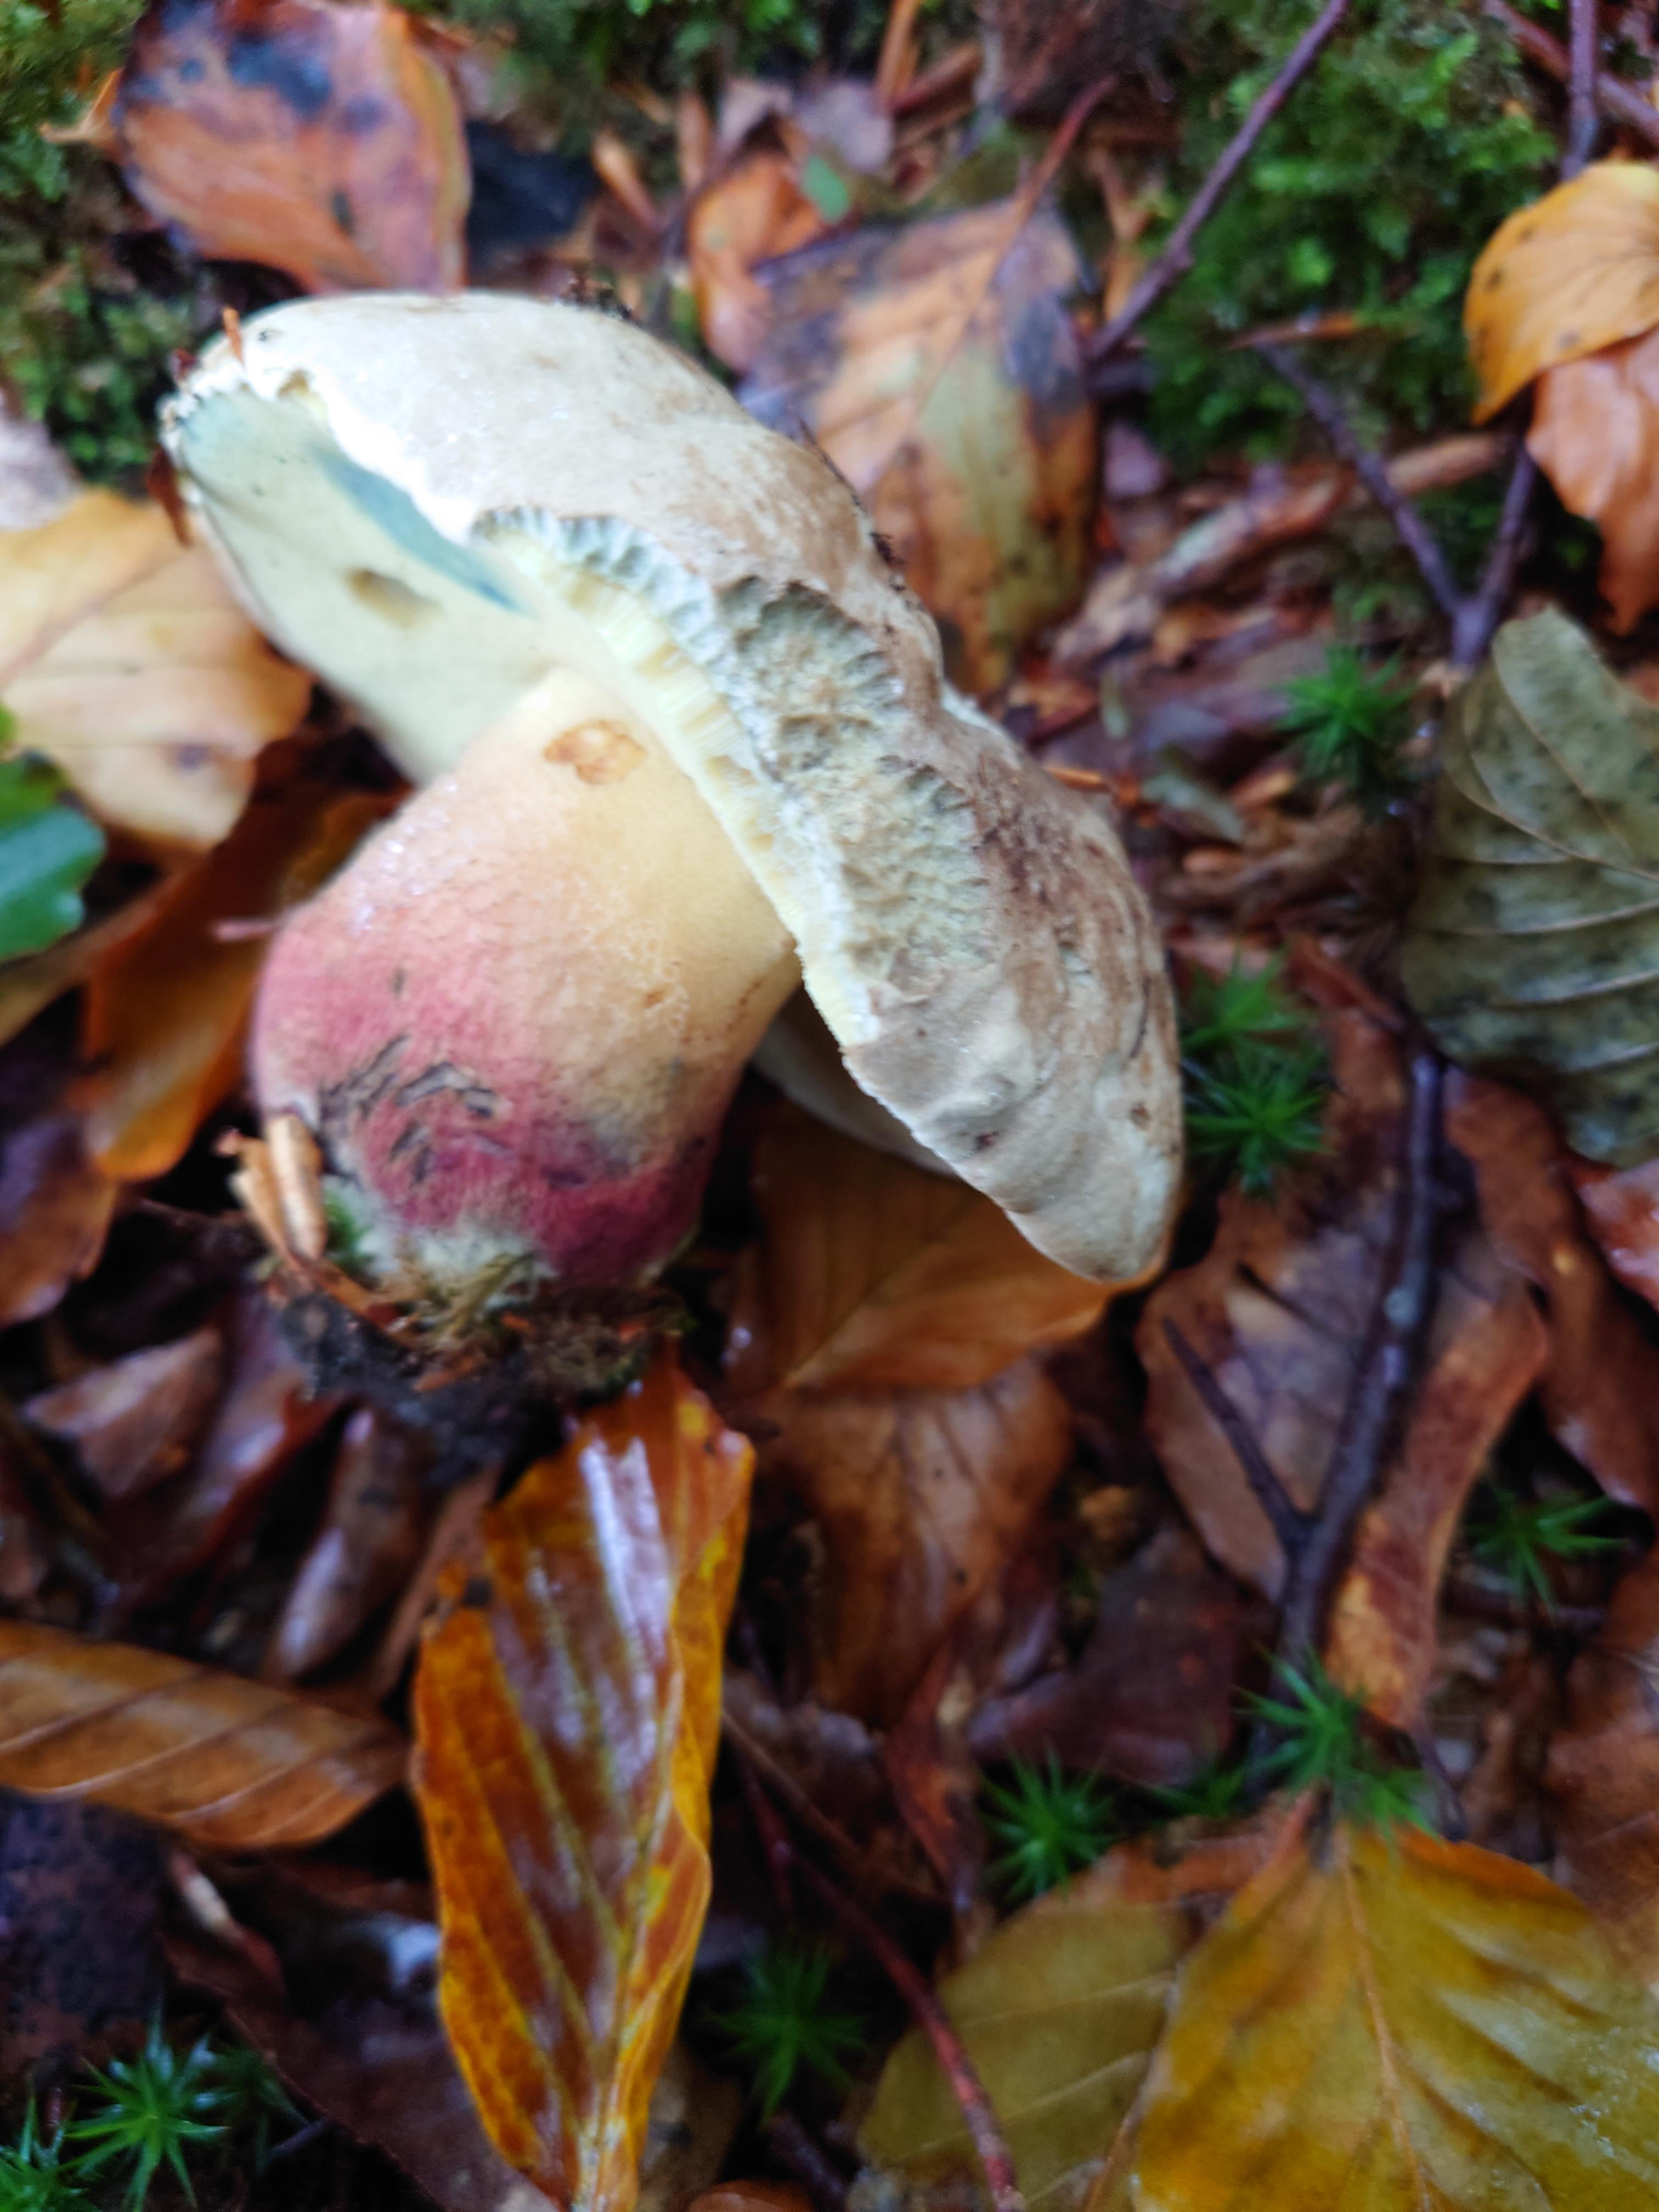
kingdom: Fungi
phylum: Basidiomycota
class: Agaricomycetes
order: Boletales
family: Boletaceae
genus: Caloboletus
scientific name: Caloboletus calopus
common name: skønfodet rørhat
